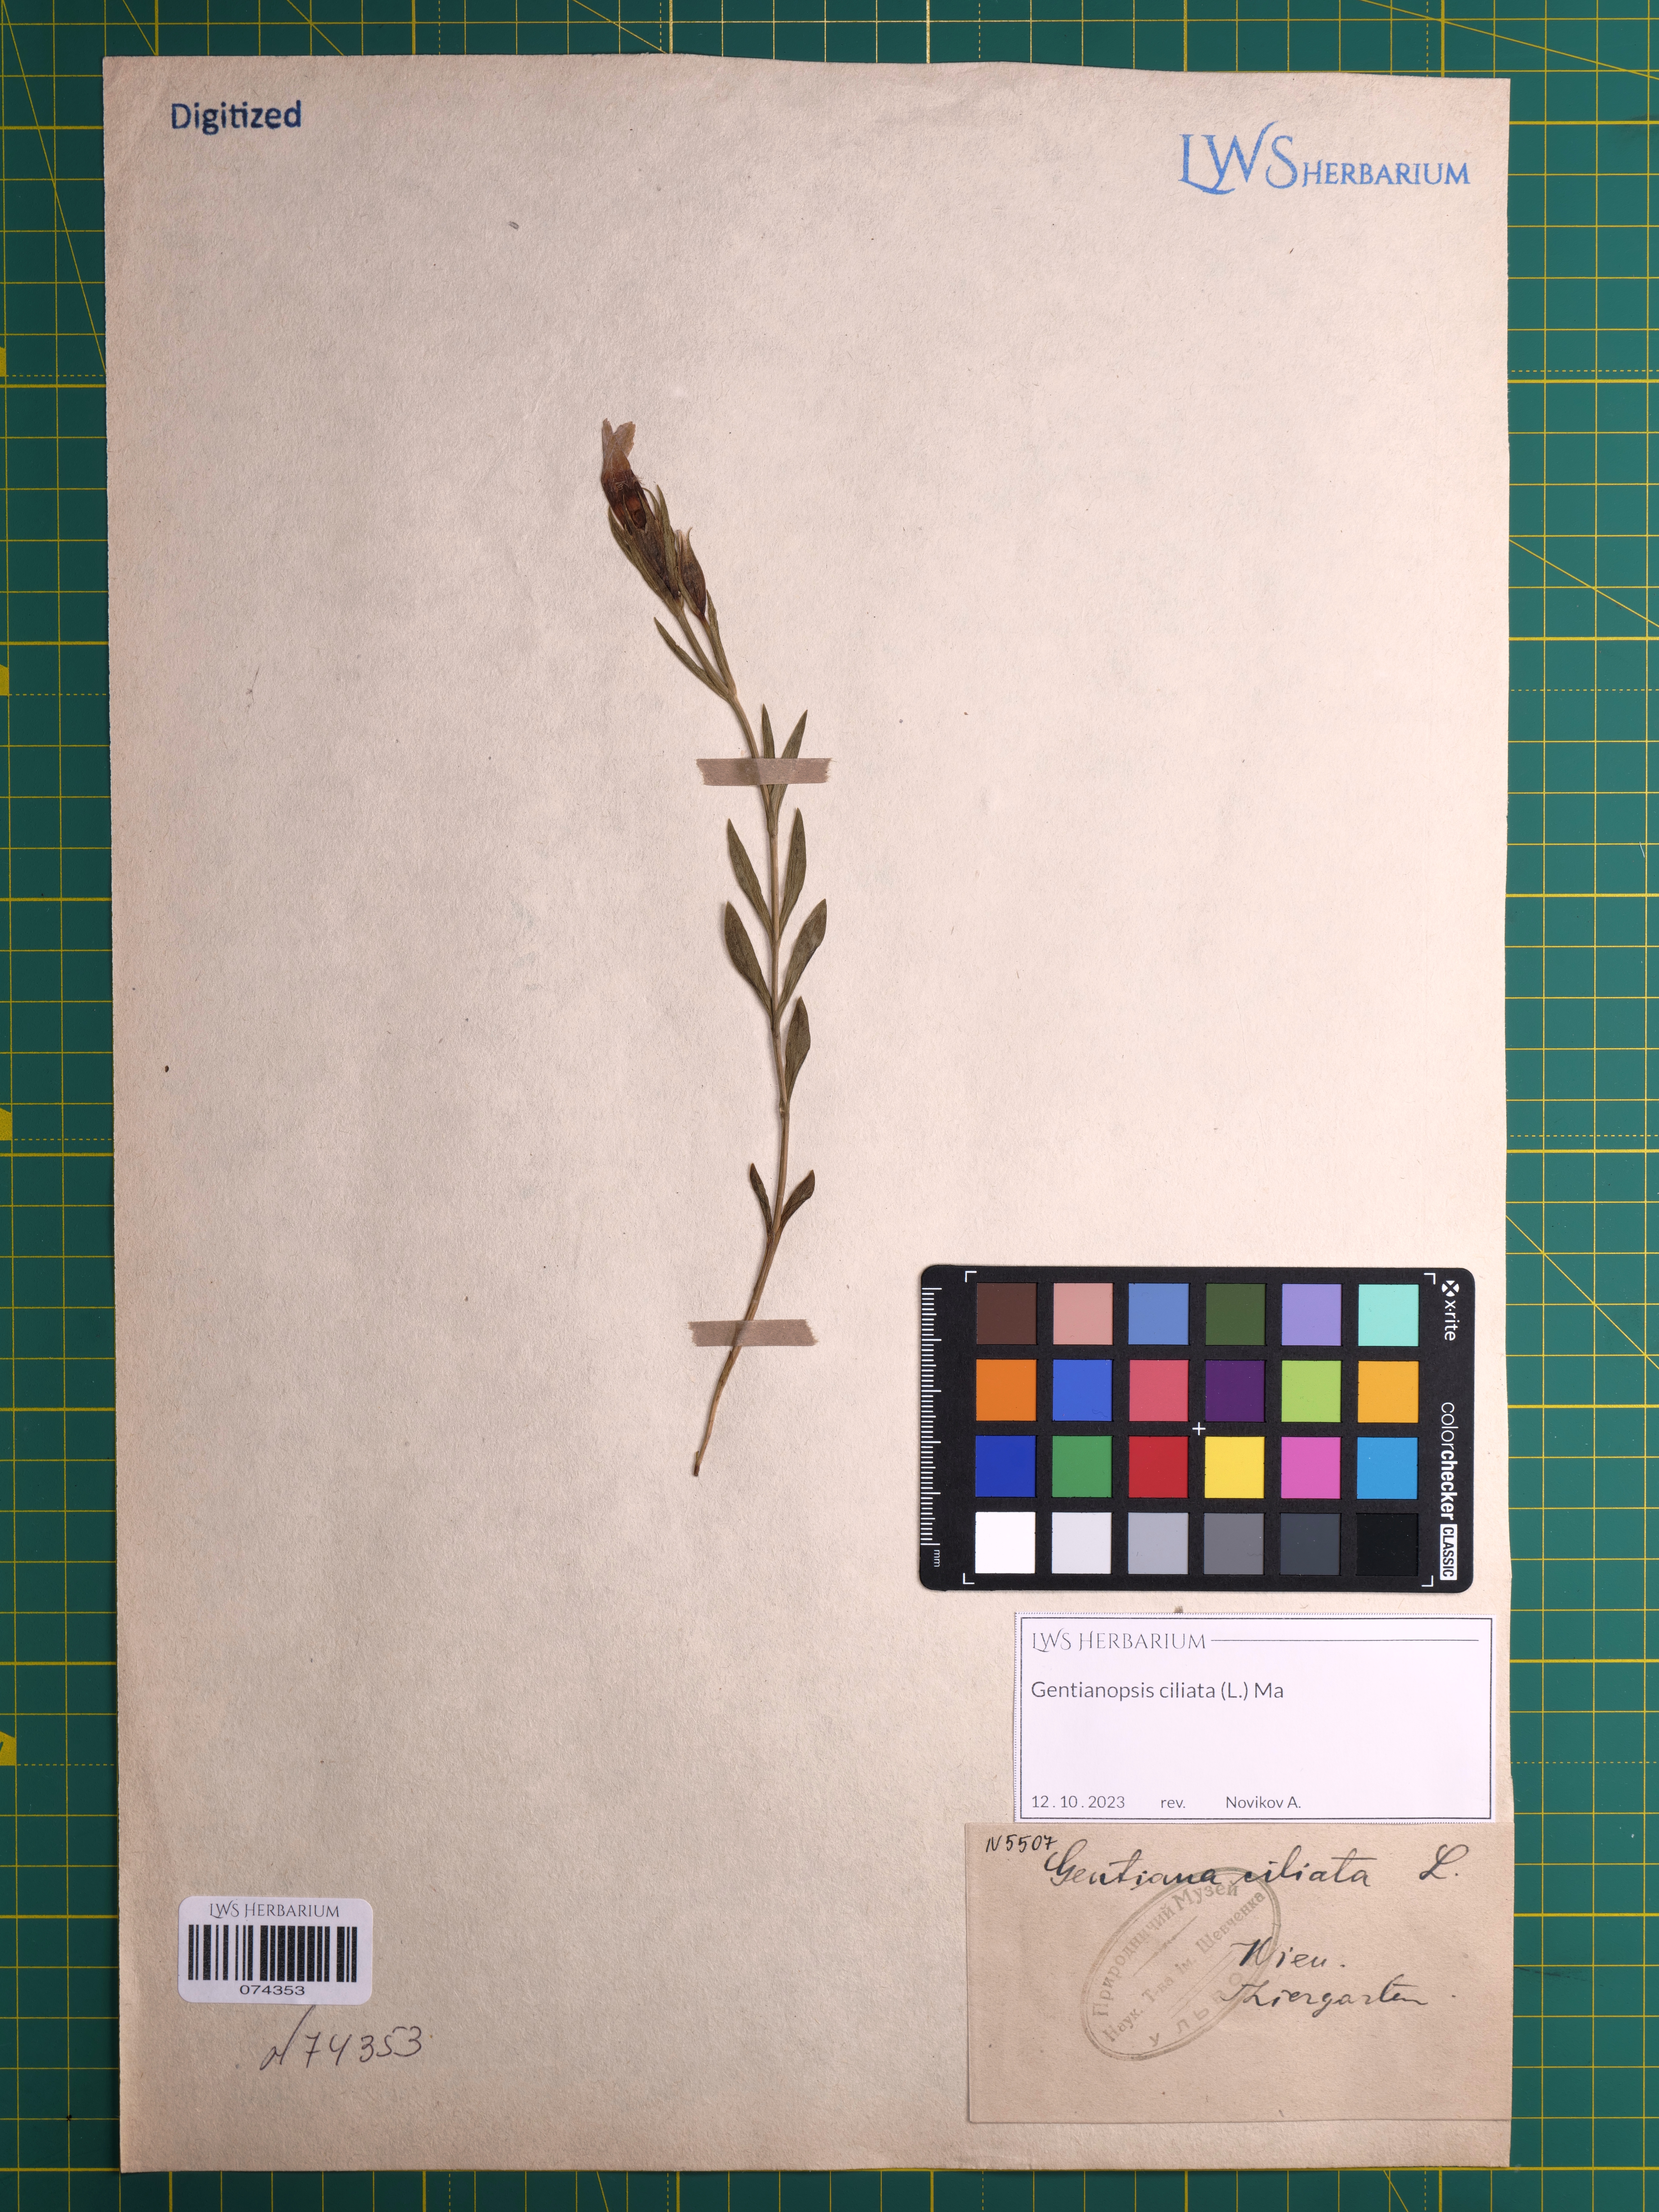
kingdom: Plantae
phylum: Tracheophyta
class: Magnoliopsida
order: Gentianales
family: Gentianaceae
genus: Gentianopsis
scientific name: Gentianopsis ciliata
